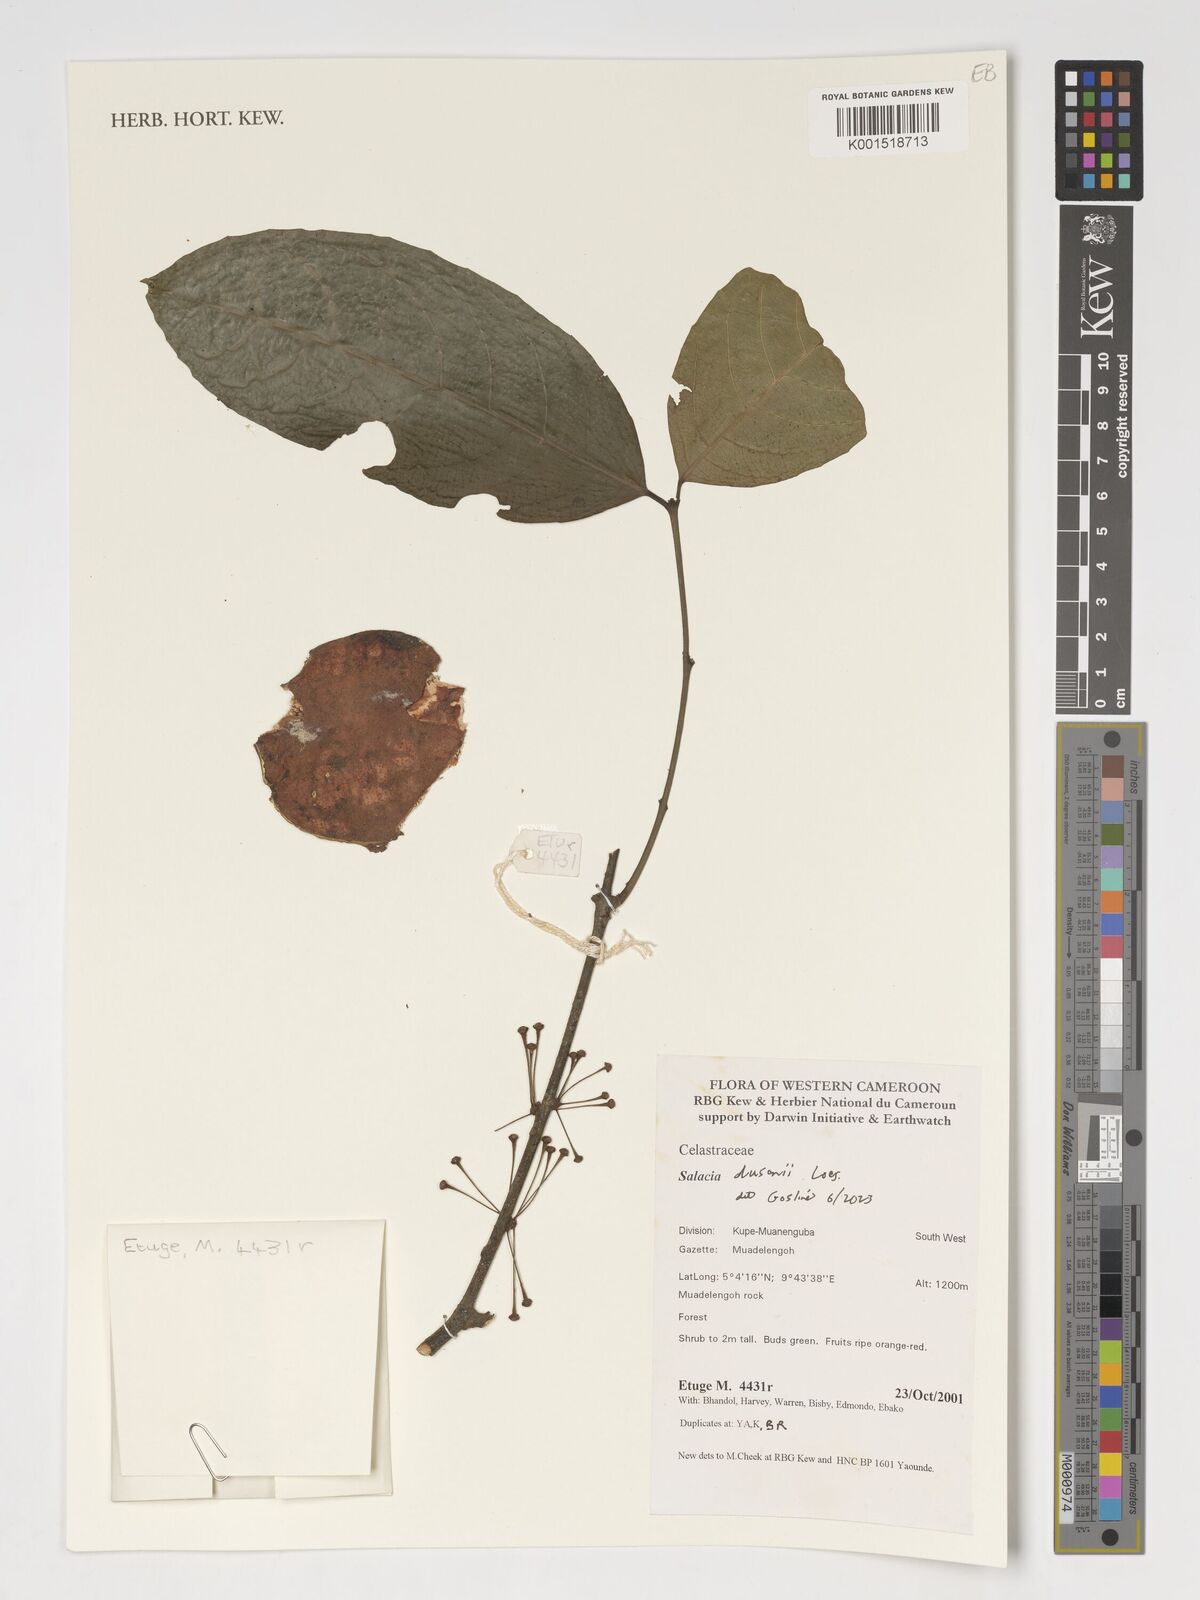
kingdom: Plantae
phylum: Tracheophyta
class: Magnoliopsida
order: Celastrales
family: Celastraceae
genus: Salacia
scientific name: Salacia dusenii
